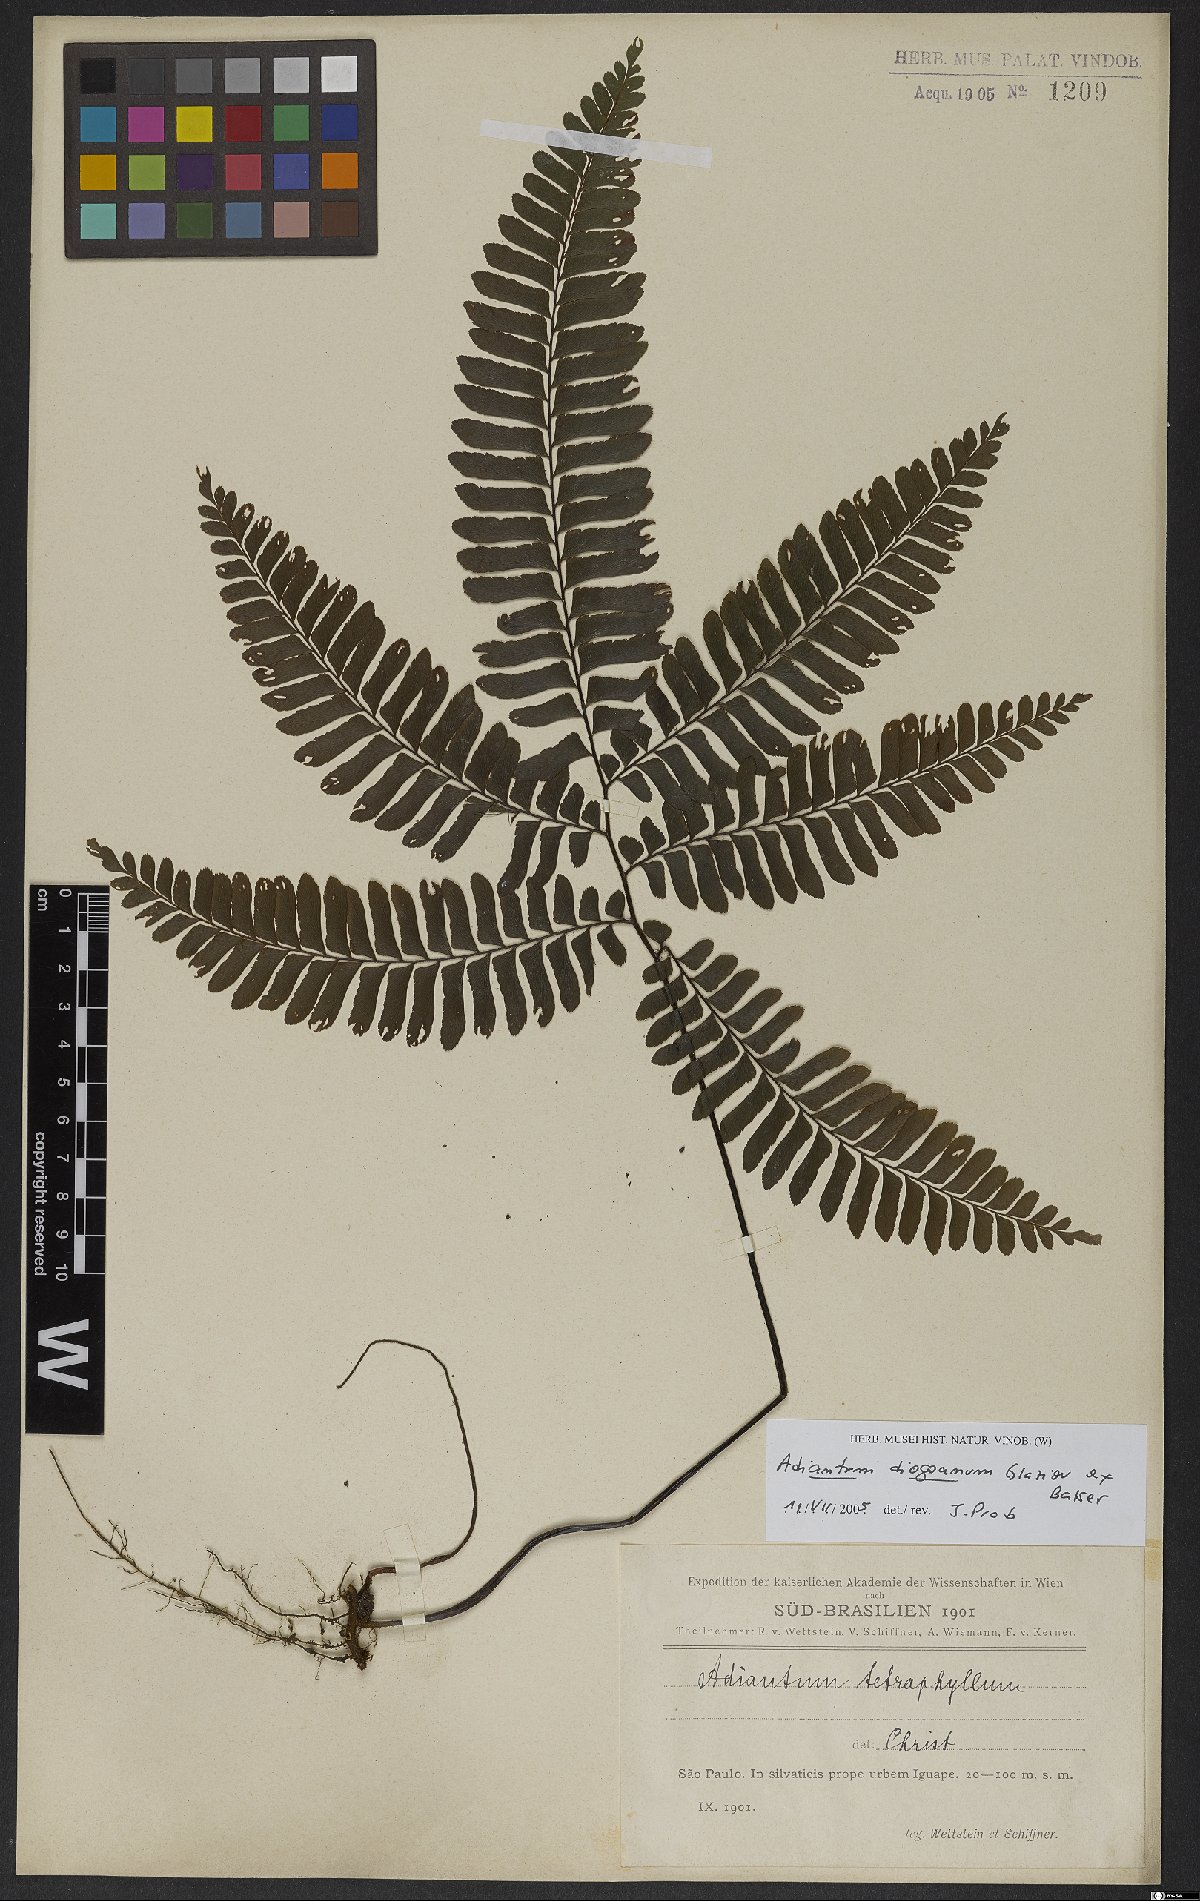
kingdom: Plantae
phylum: Tracheophyta
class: Polypodiopsida
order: Polypodiales
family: Pteridaceae
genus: Adiantum
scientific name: Adiantum diogoanum
